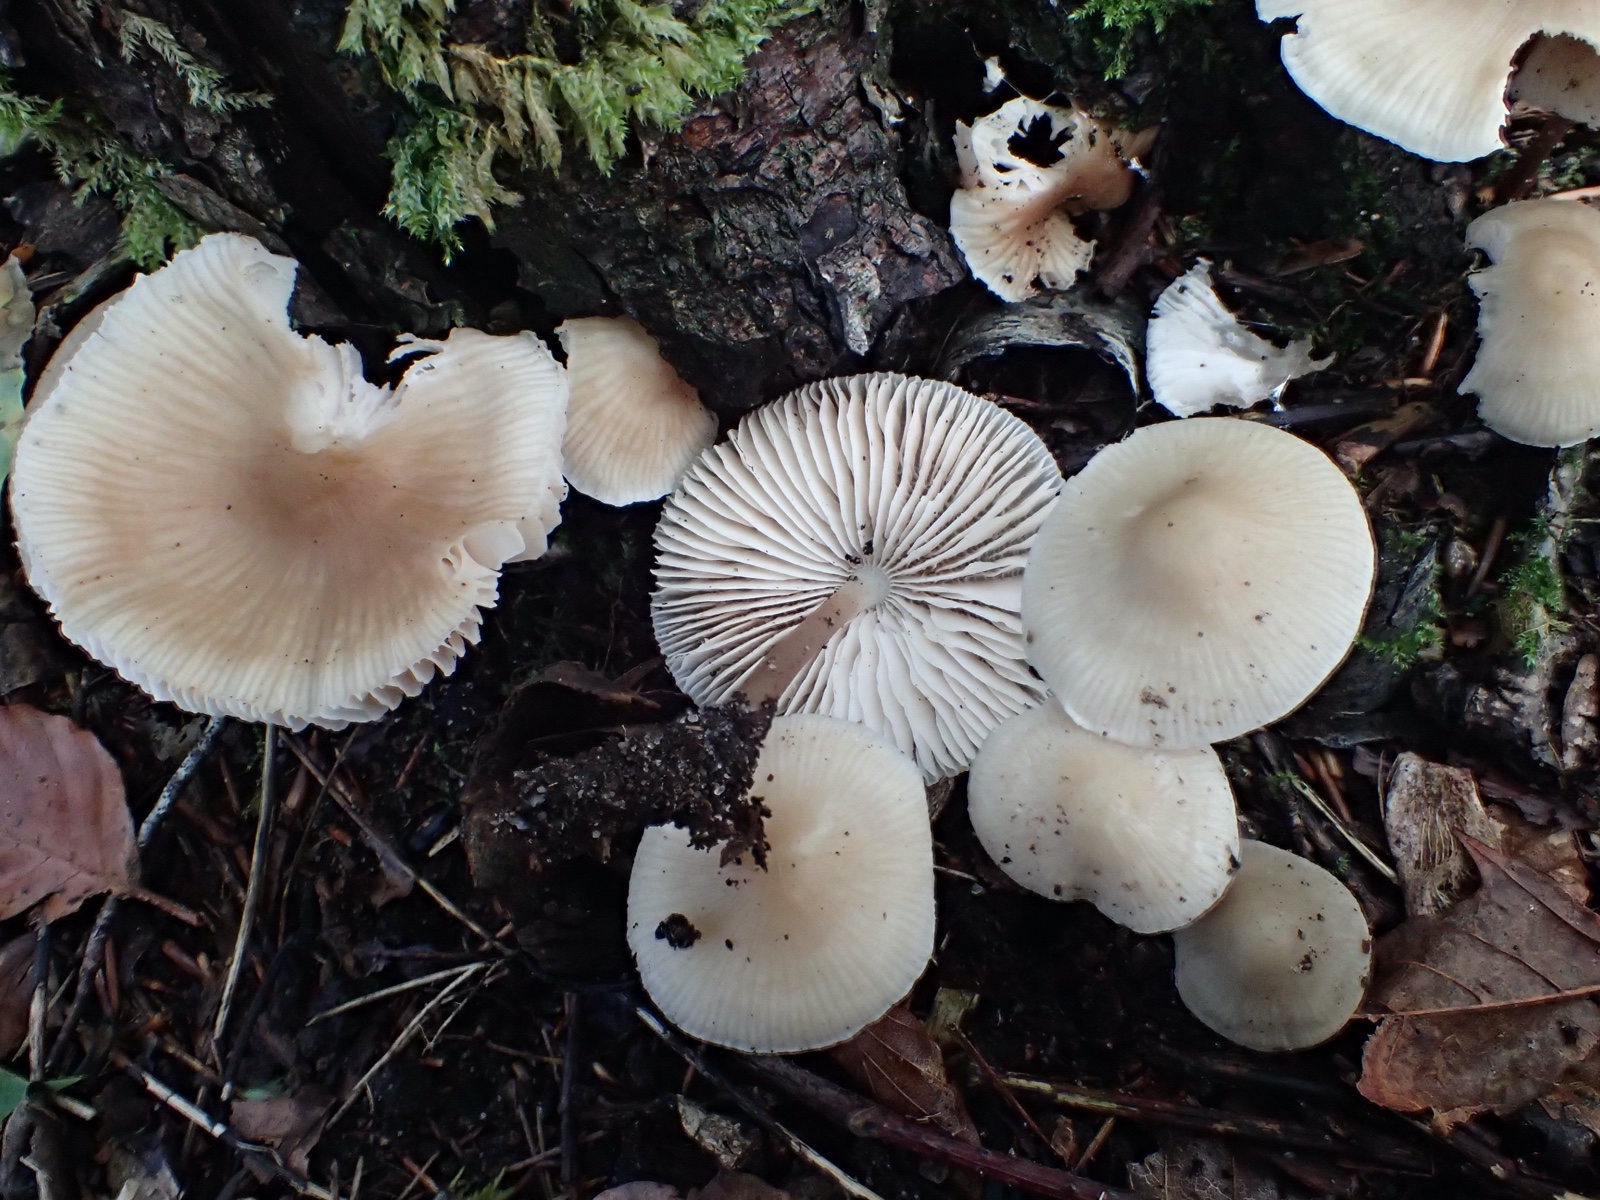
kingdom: Fungi
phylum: Basidiomycota
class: Agaricomycetes
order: Agaricales
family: Mycenaceae
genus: Mycena
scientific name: Mycena galericulata
